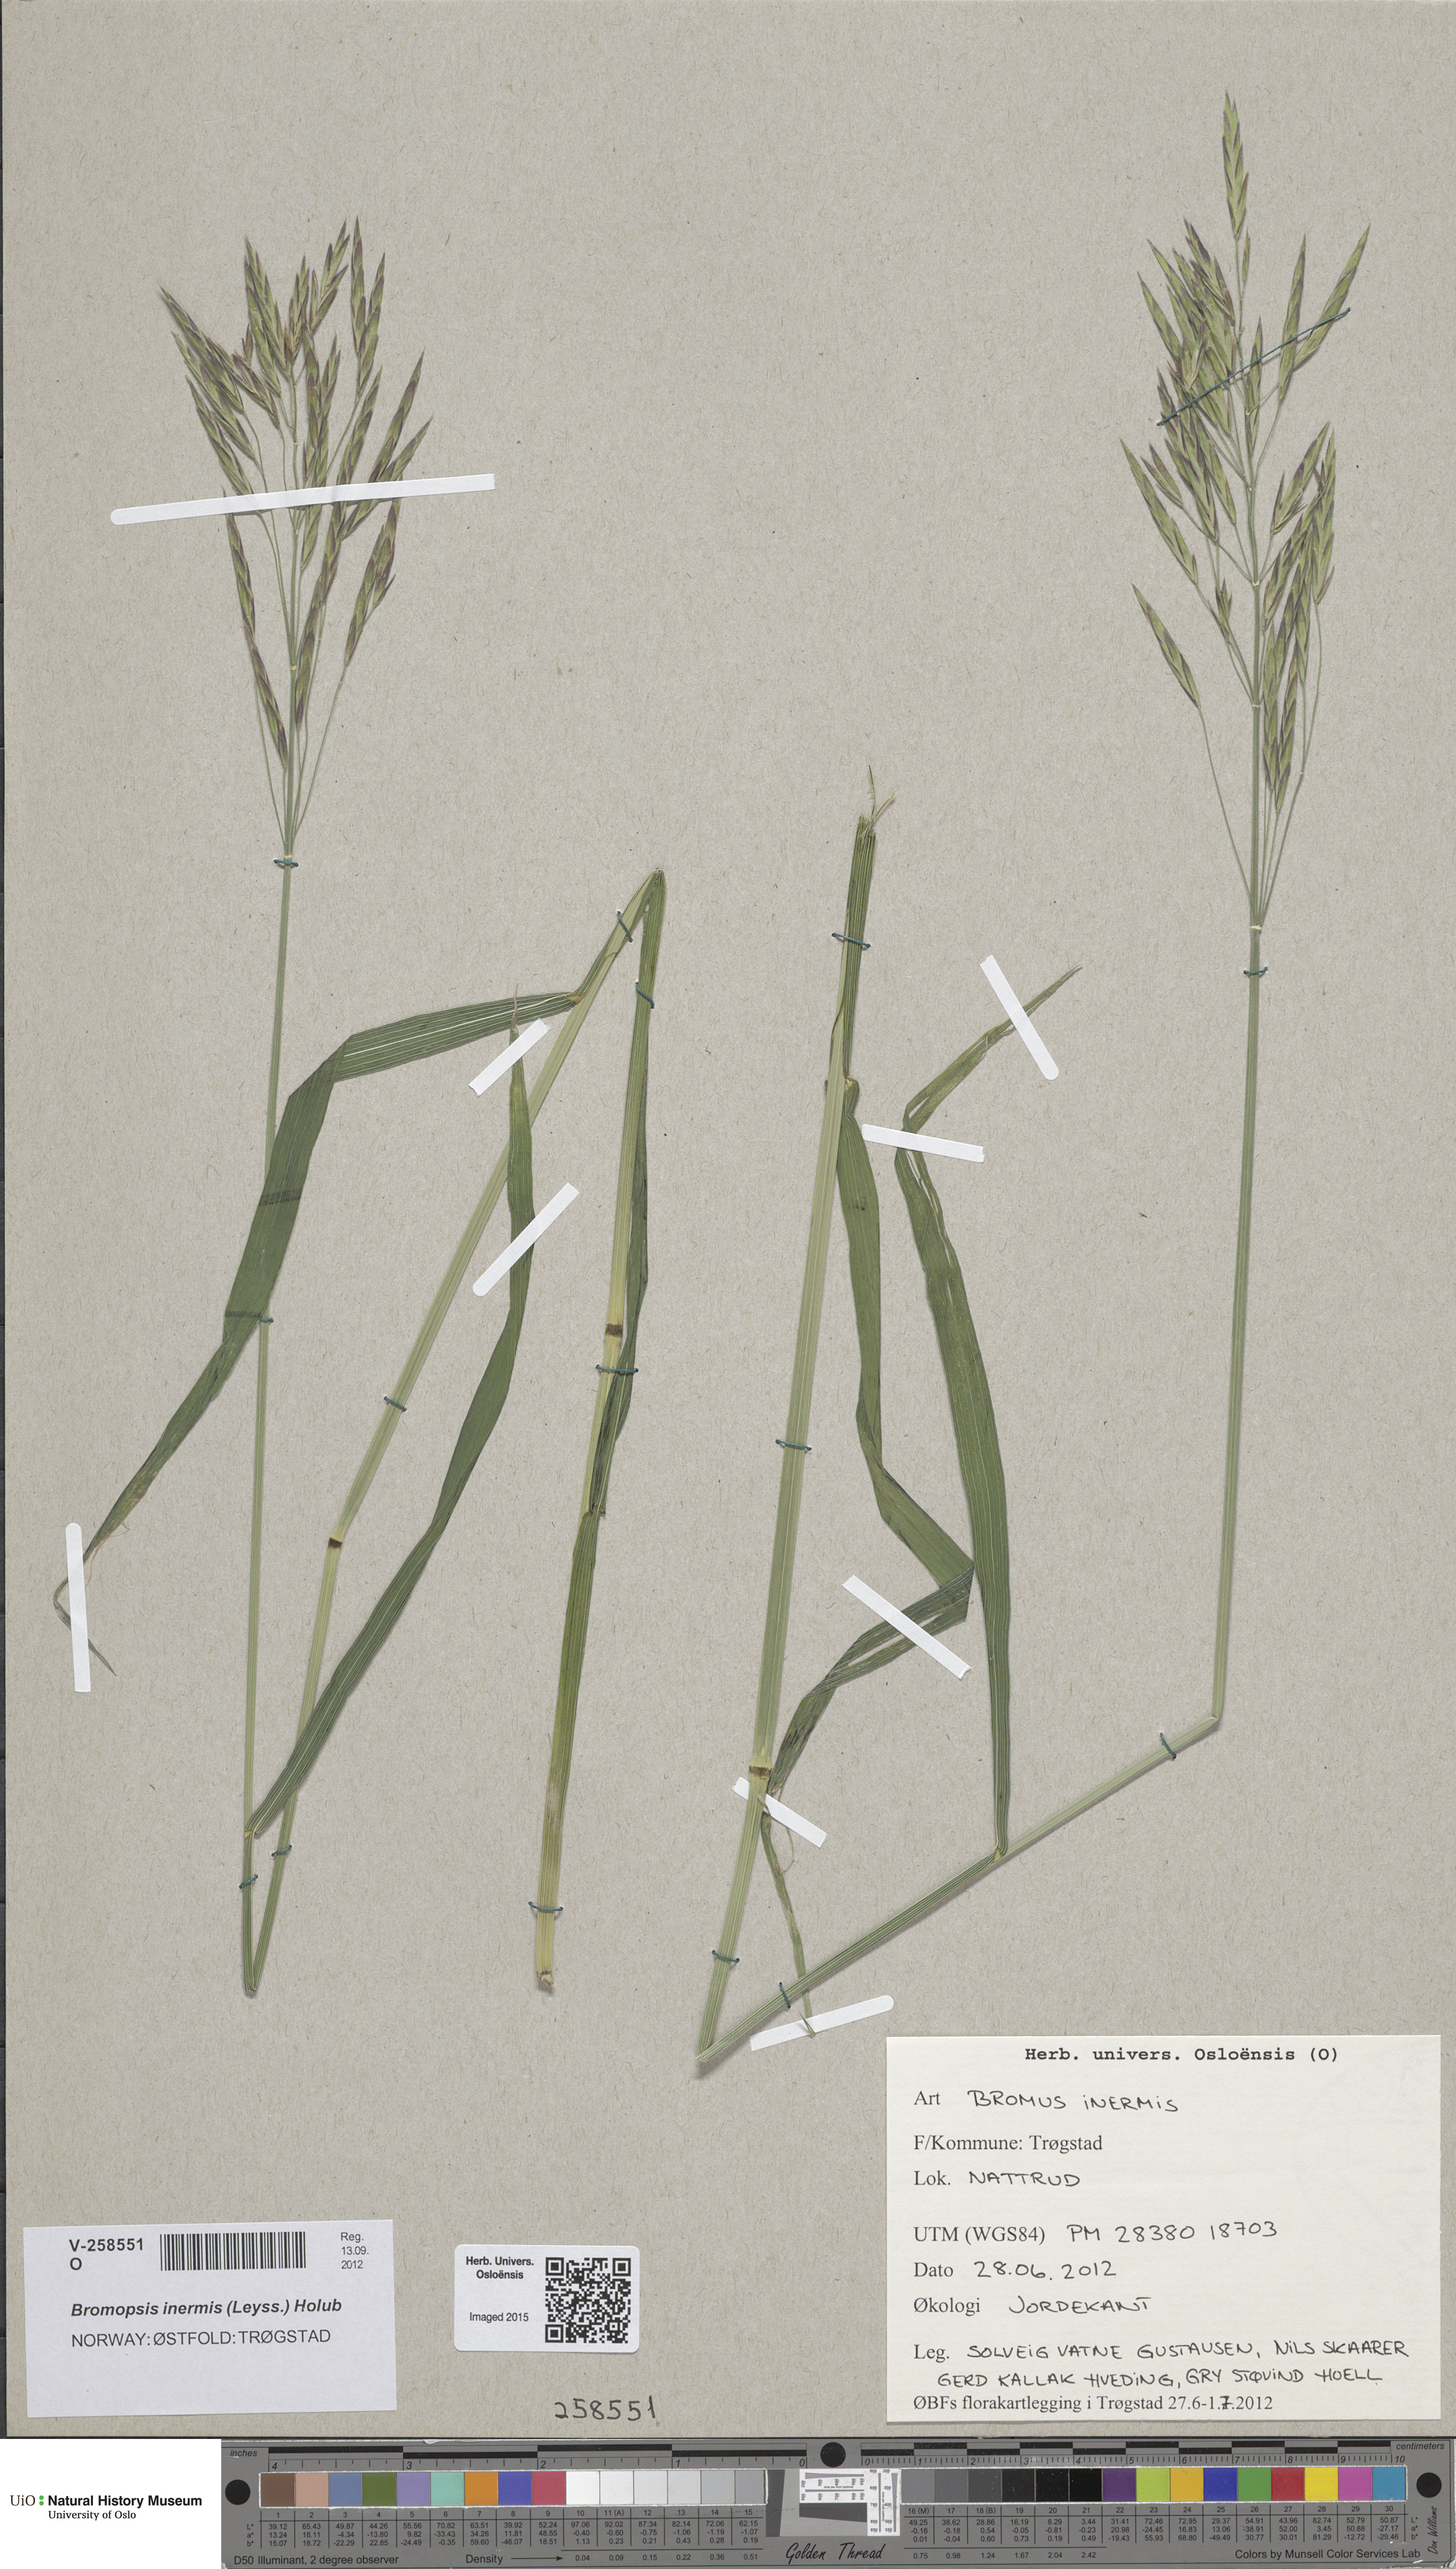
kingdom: Plantae
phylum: Tracheophyta
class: Liliopsida
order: Poales
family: Poaceae
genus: Bromus
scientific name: Bromus inermis
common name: Smooth brome
